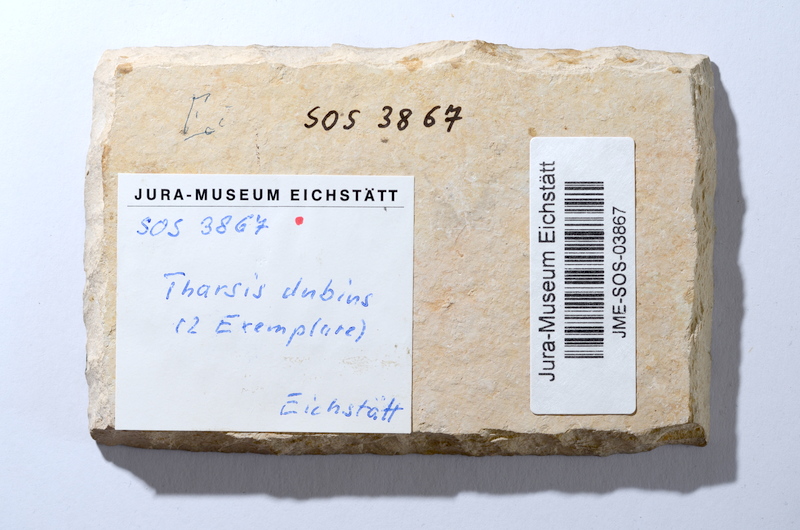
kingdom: Animalia
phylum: Chordata
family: Ascalaboidae
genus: Tharsis
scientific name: Tharsis dubius
